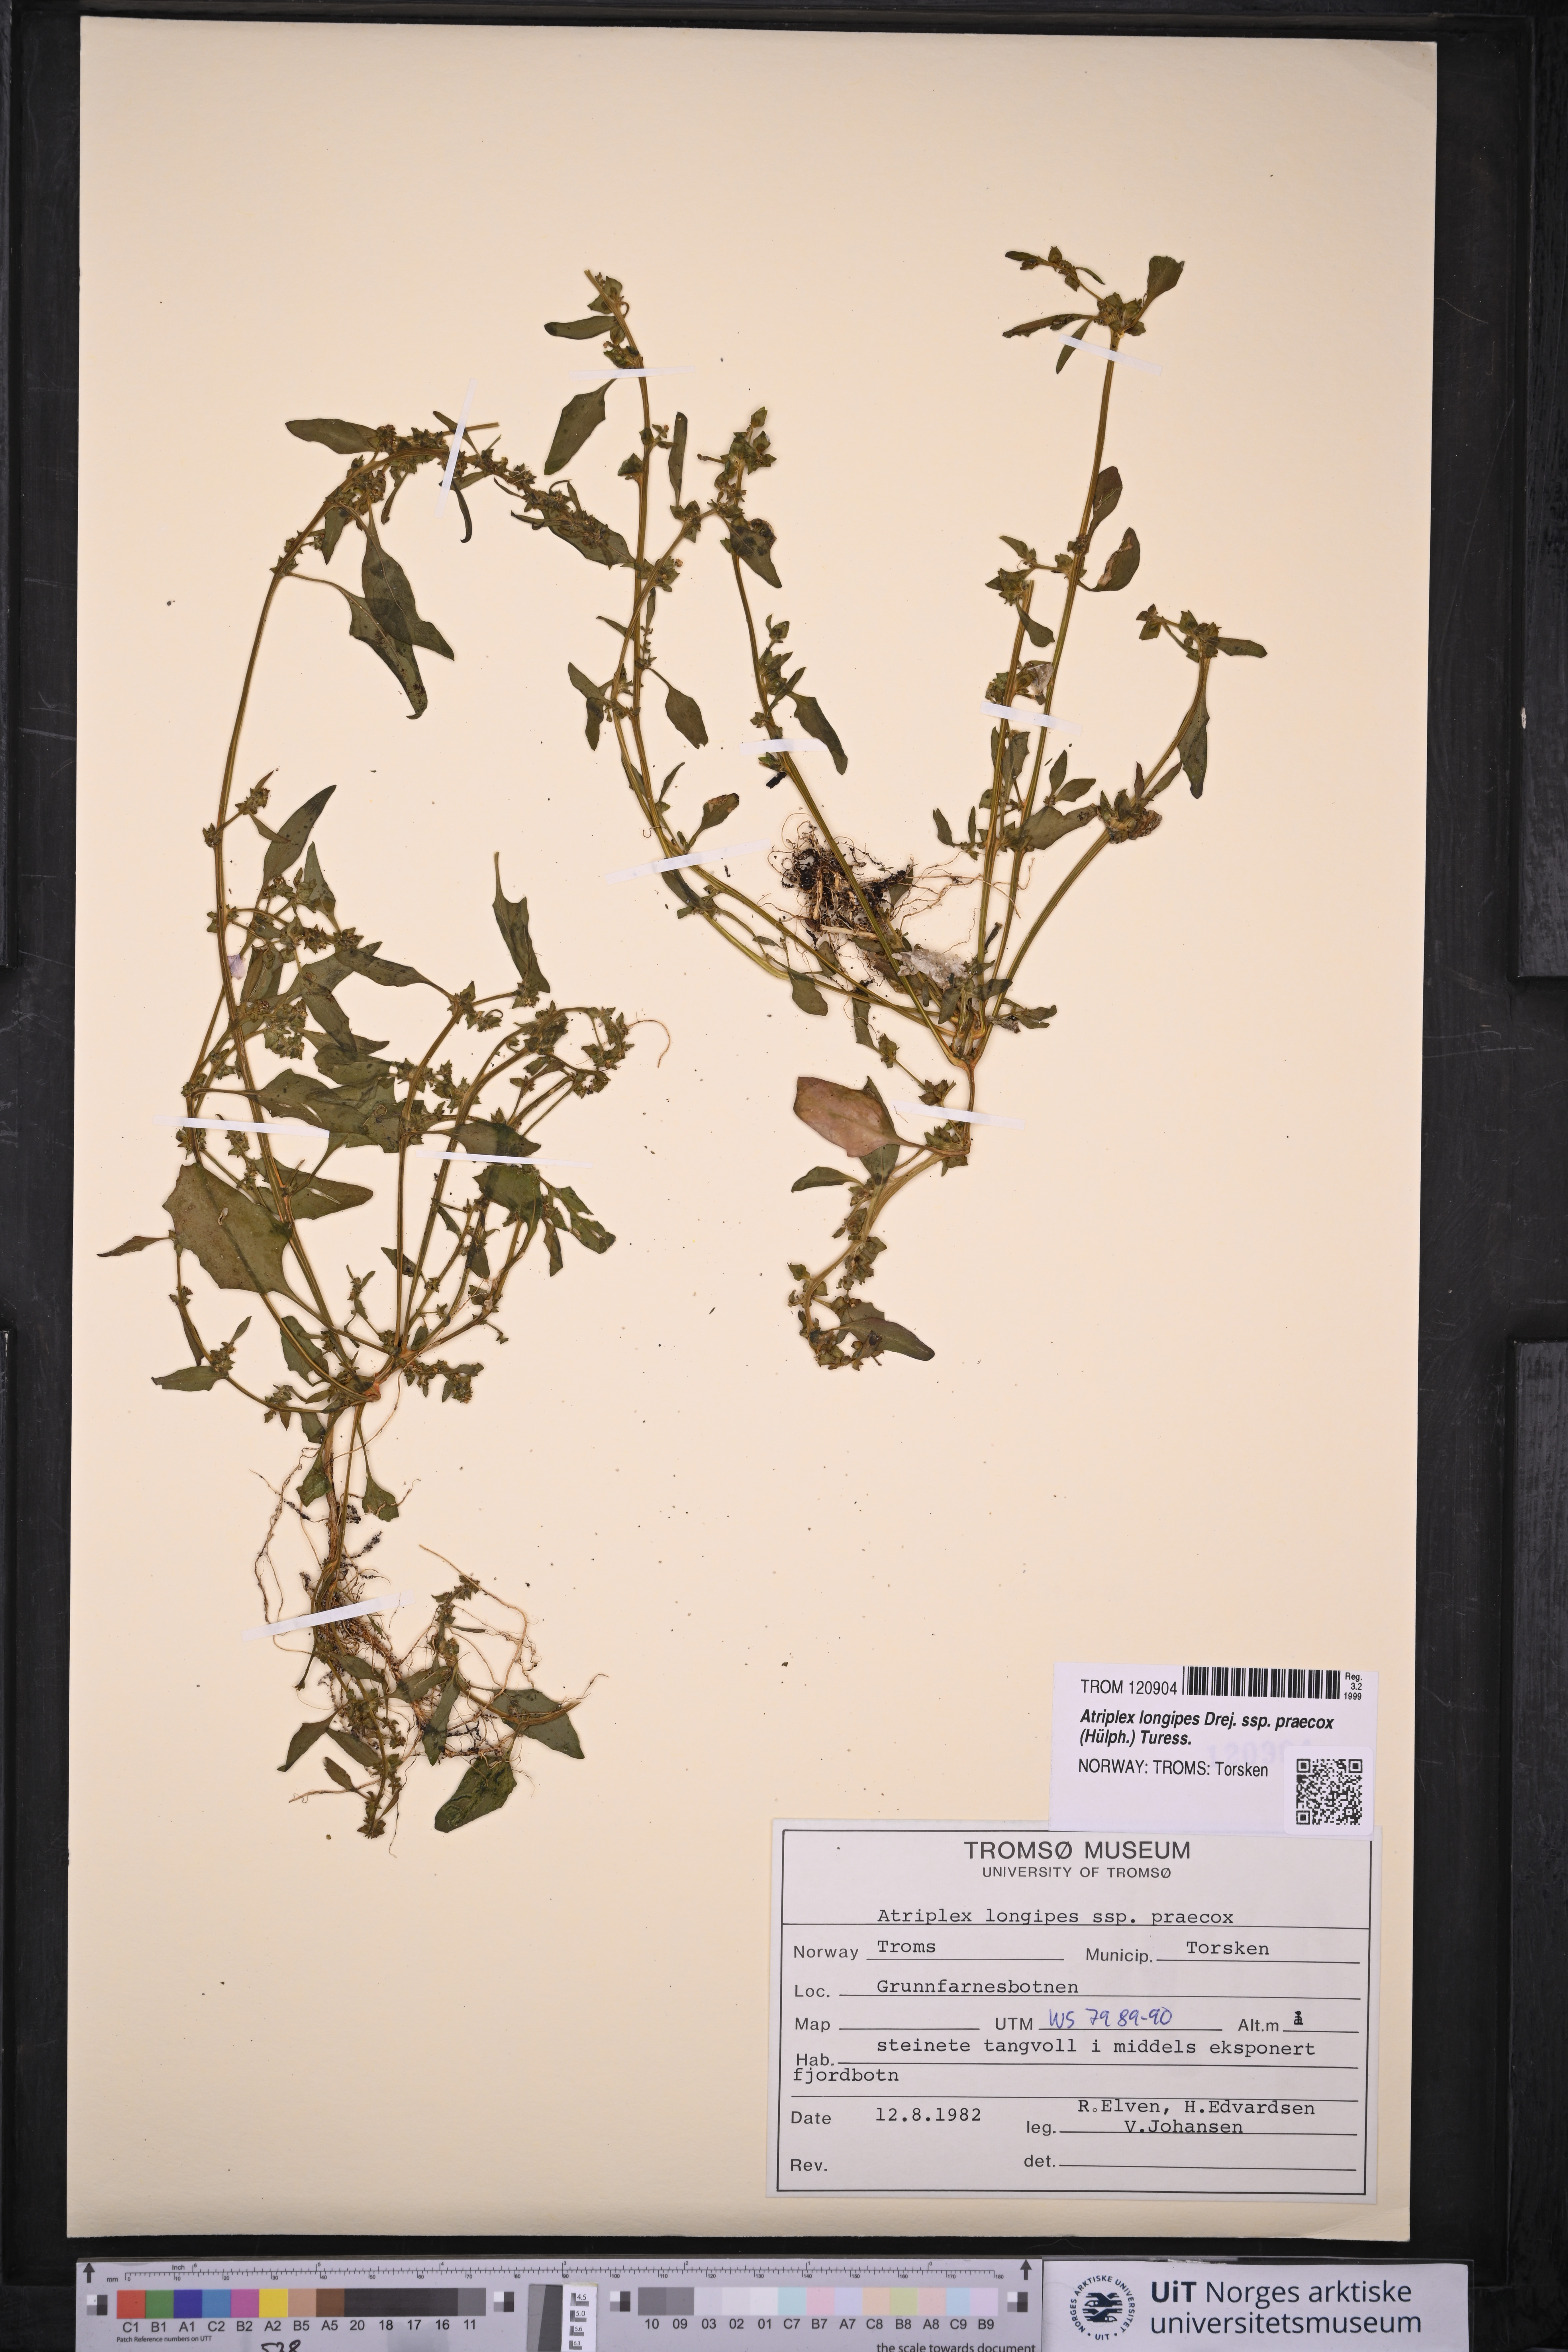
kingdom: Plantae
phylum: Tracheophyta
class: Magnoliopsida
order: Caryophyllales
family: Amaranthaceae
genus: Atriplex
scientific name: Atriplex praecox
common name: Early orache
